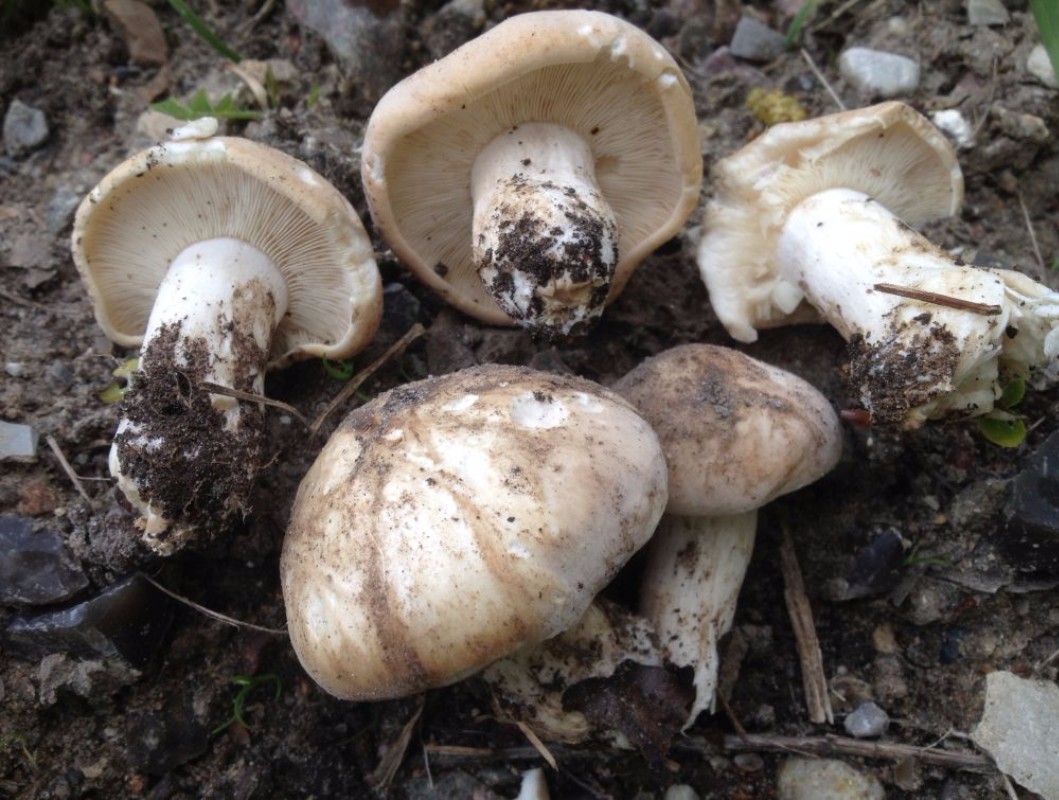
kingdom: Fungi
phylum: Basidiomycota
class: Agaricomycetes
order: Agaricales
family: Lyophyllaceae
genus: Calocybe
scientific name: Calocybe gambosa
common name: vårmusseron
